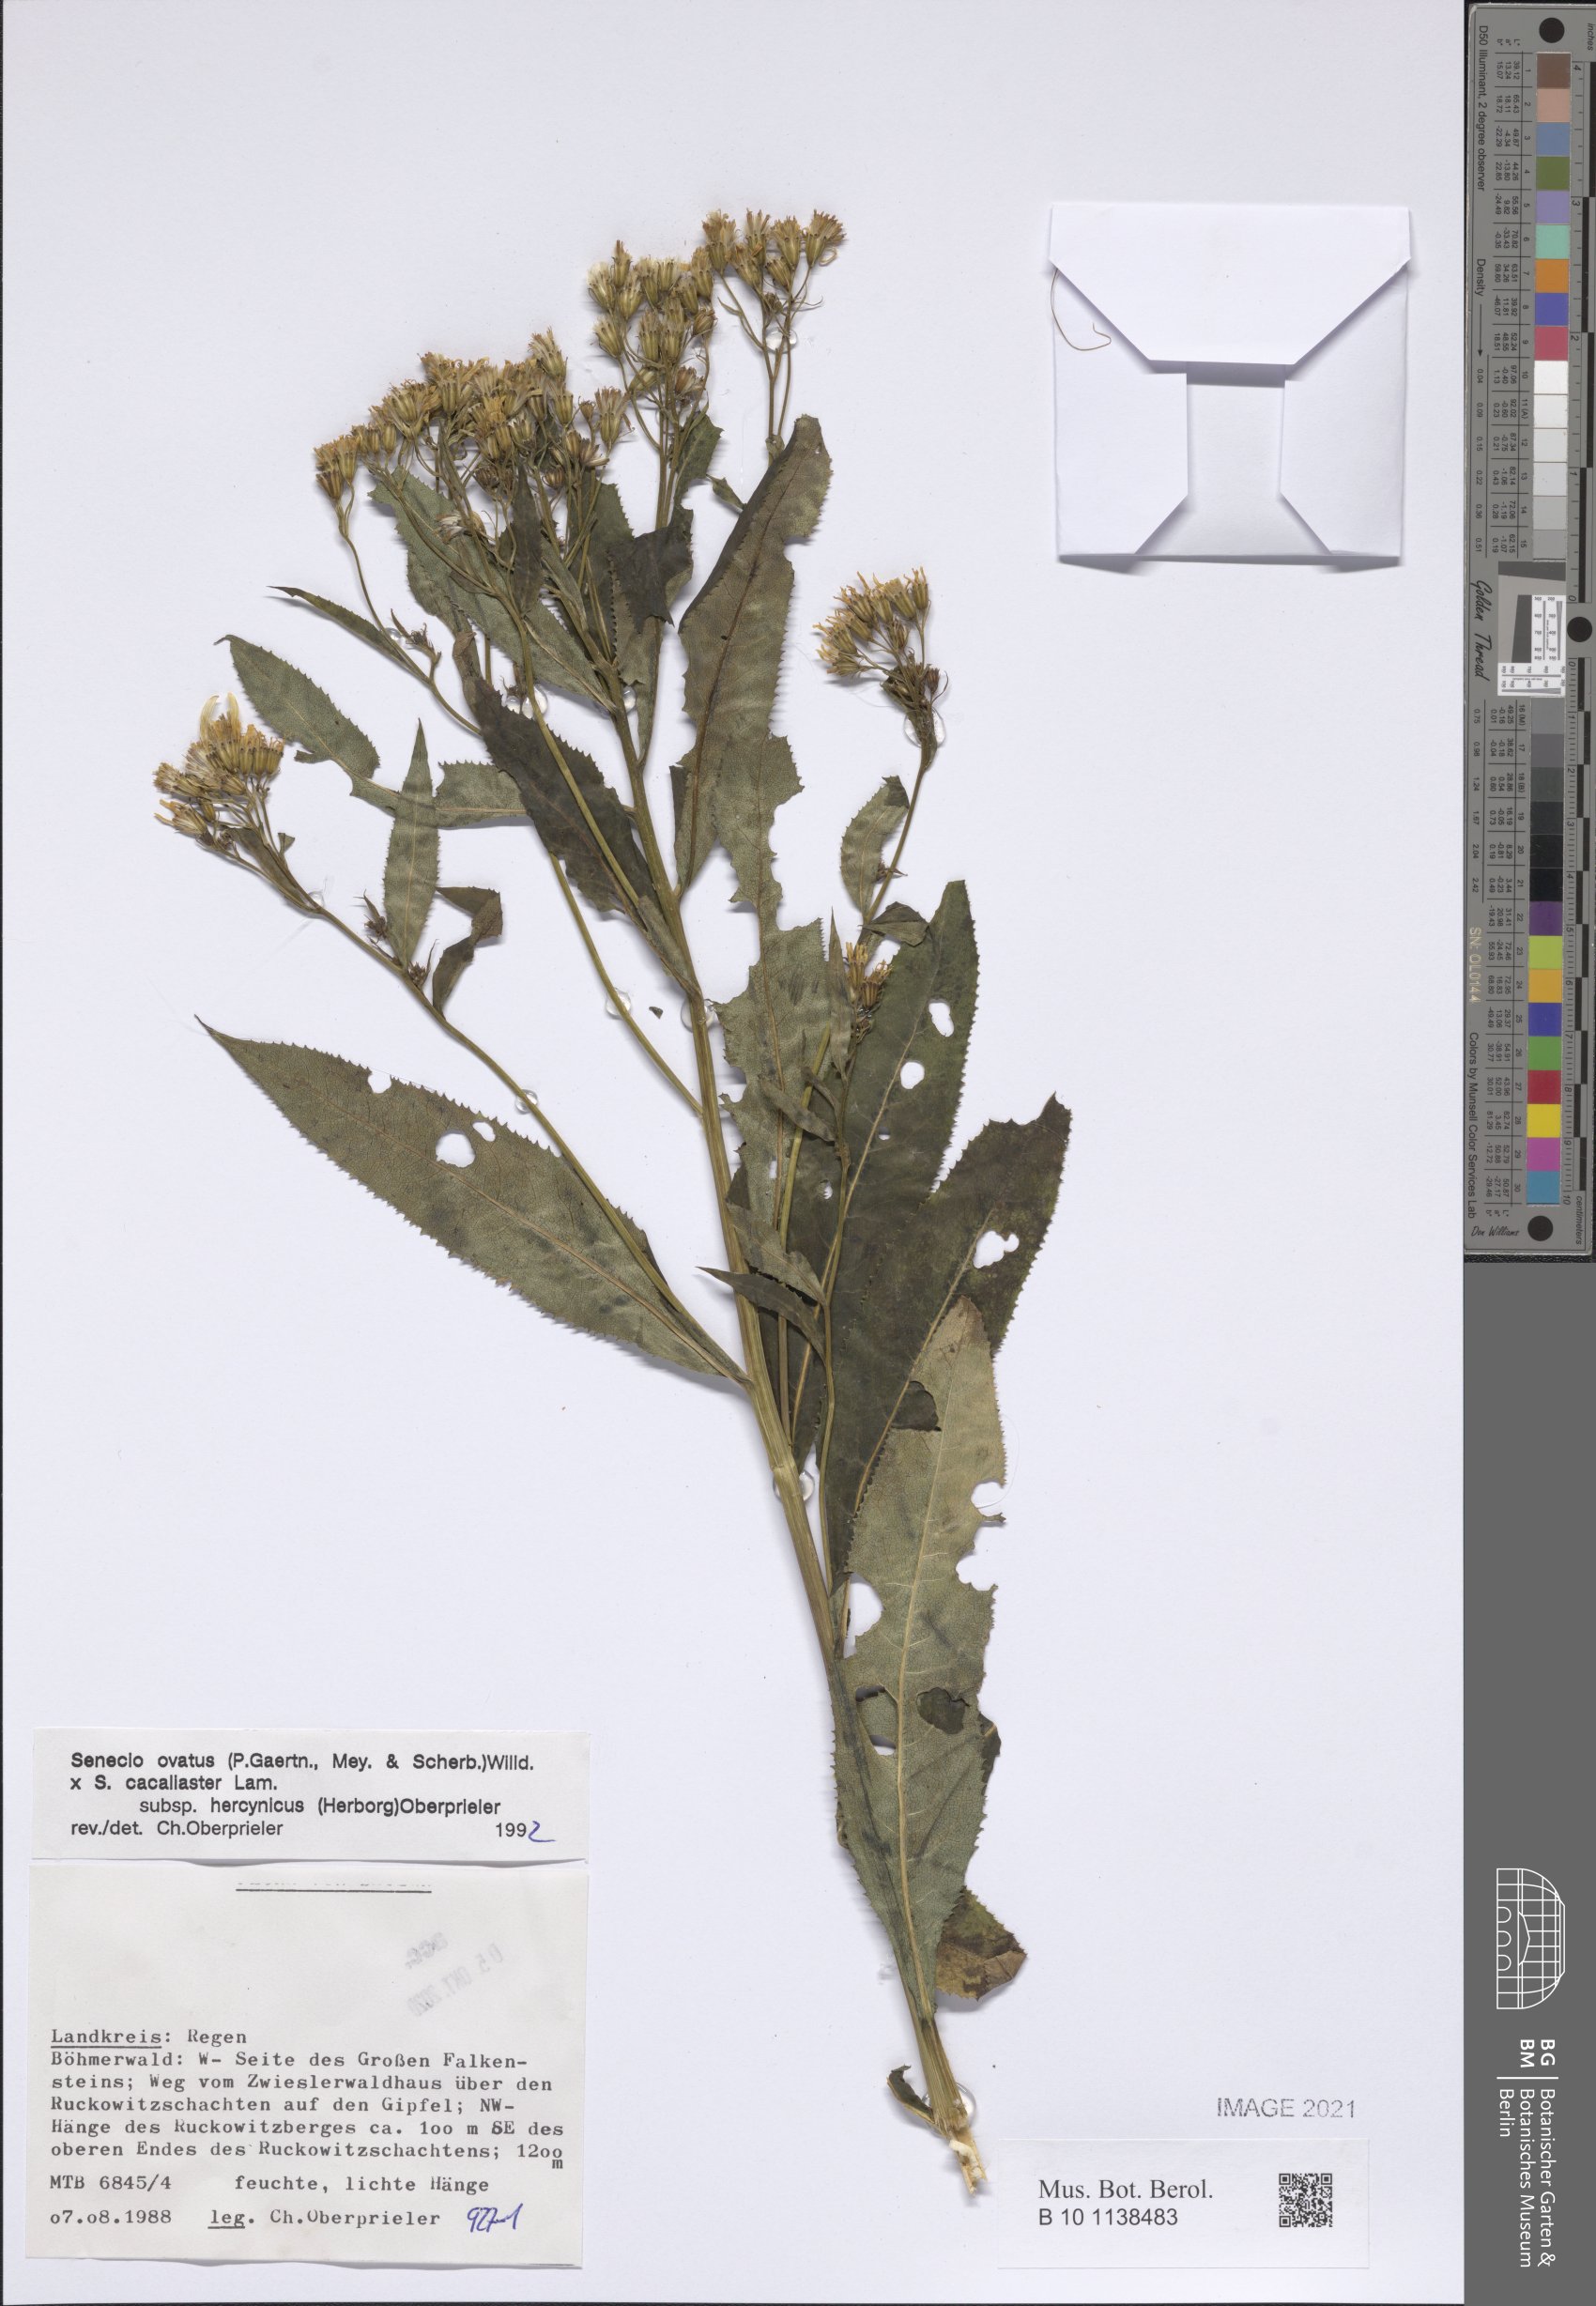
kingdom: Plantae
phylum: Tracheophyta
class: Magnoliopsida
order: Asterales
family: Asteraceae
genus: Senecio
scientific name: Senecio ovatus
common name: Wood ragwort
